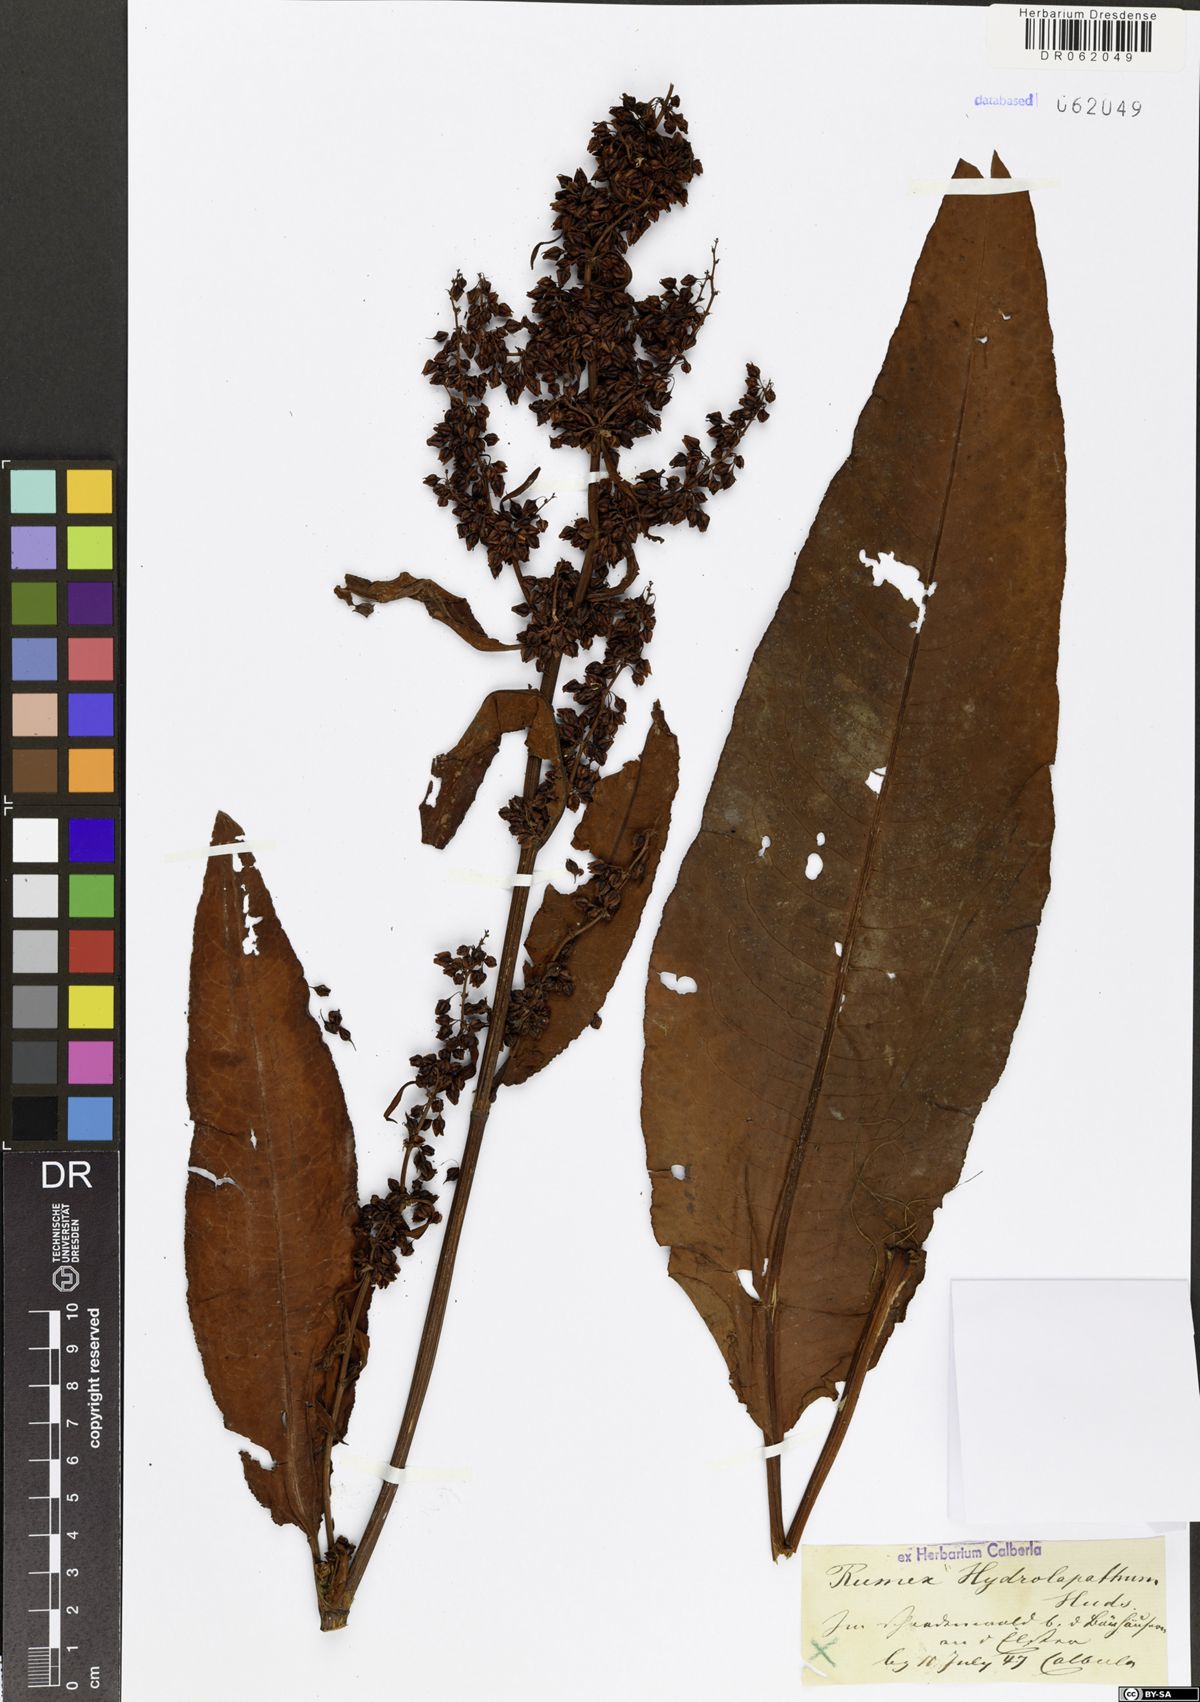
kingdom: Plantae
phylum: Tracheophyta
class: Magnoliopsida
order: Caryophyllales
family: Polygonaceae
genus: Rumex
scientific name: Rumex hydrolapathum
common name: Water dock
